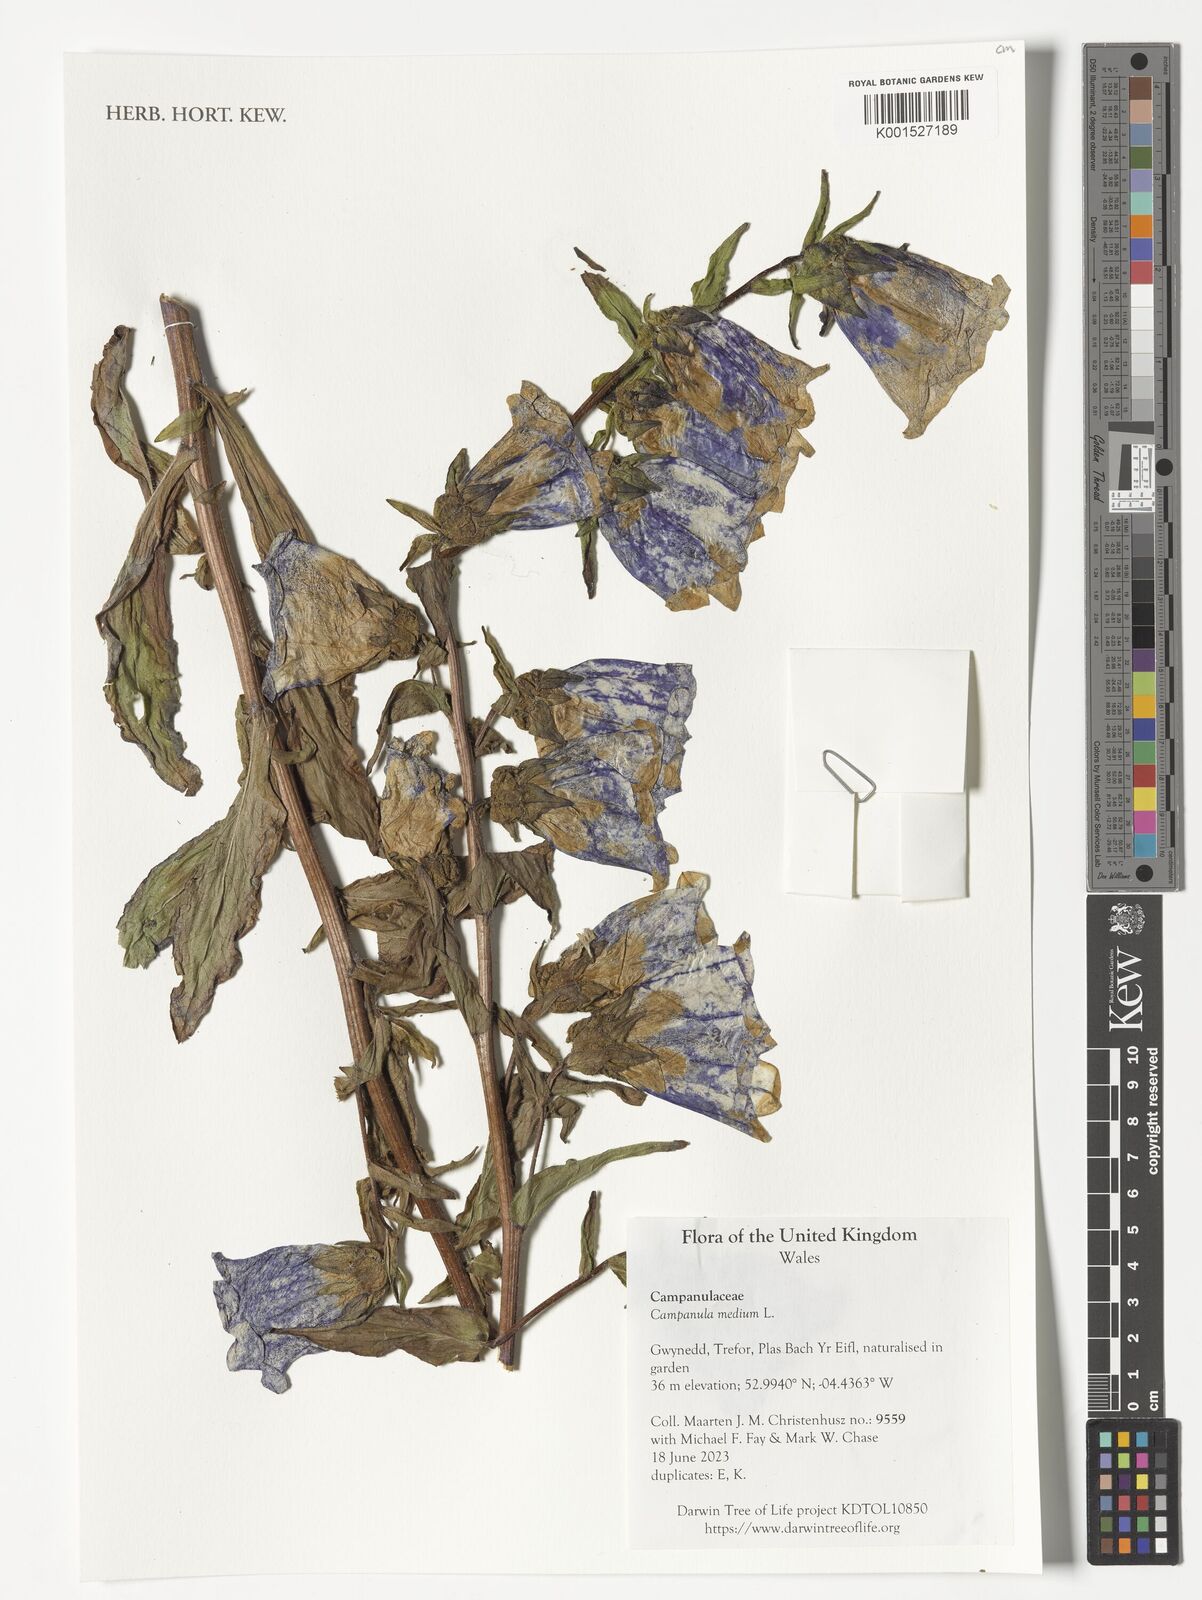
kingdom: Plantae
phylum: Tracheophyta
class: Magnoliopsida
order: Asterales
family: Campanulaceae
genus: Campanula
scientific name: Campanula medium
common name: Canterbury bells
